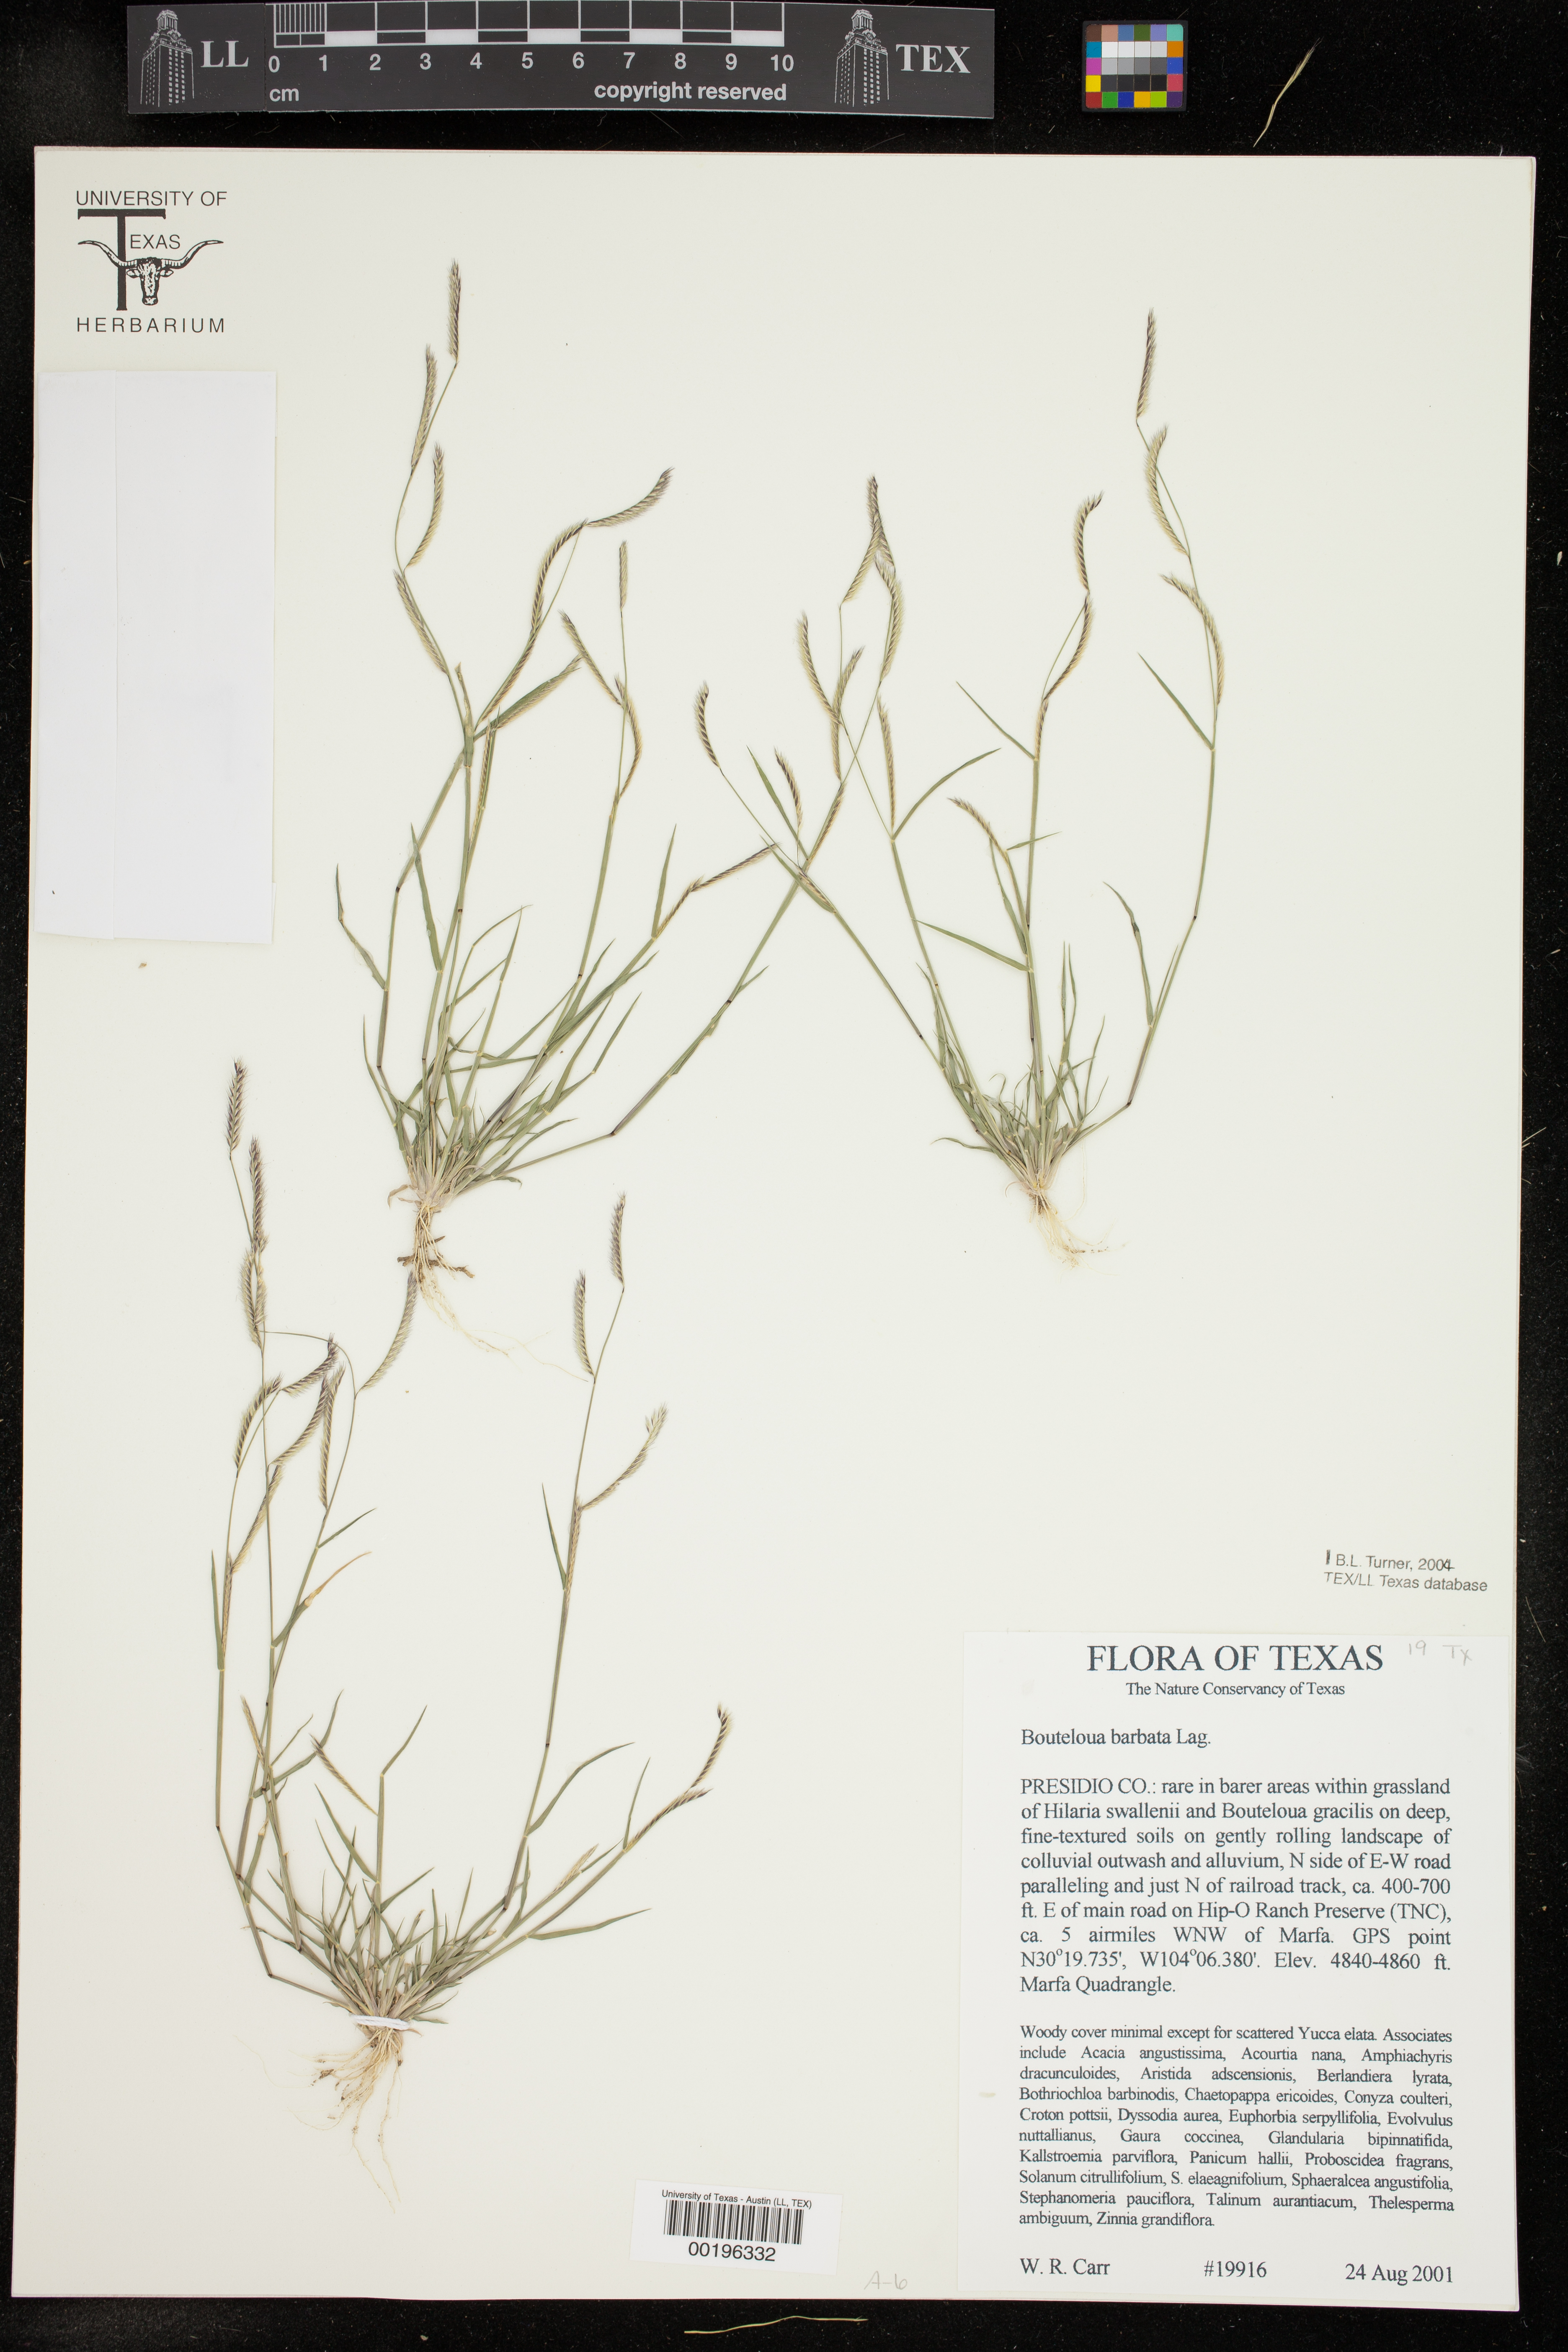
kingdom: Plantae
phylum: Tracheophyta
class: Liliopsida
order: Poales
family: Poaceae
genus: Bouteloua
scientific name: Bouteloua barbata
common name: Six-weeks grama
